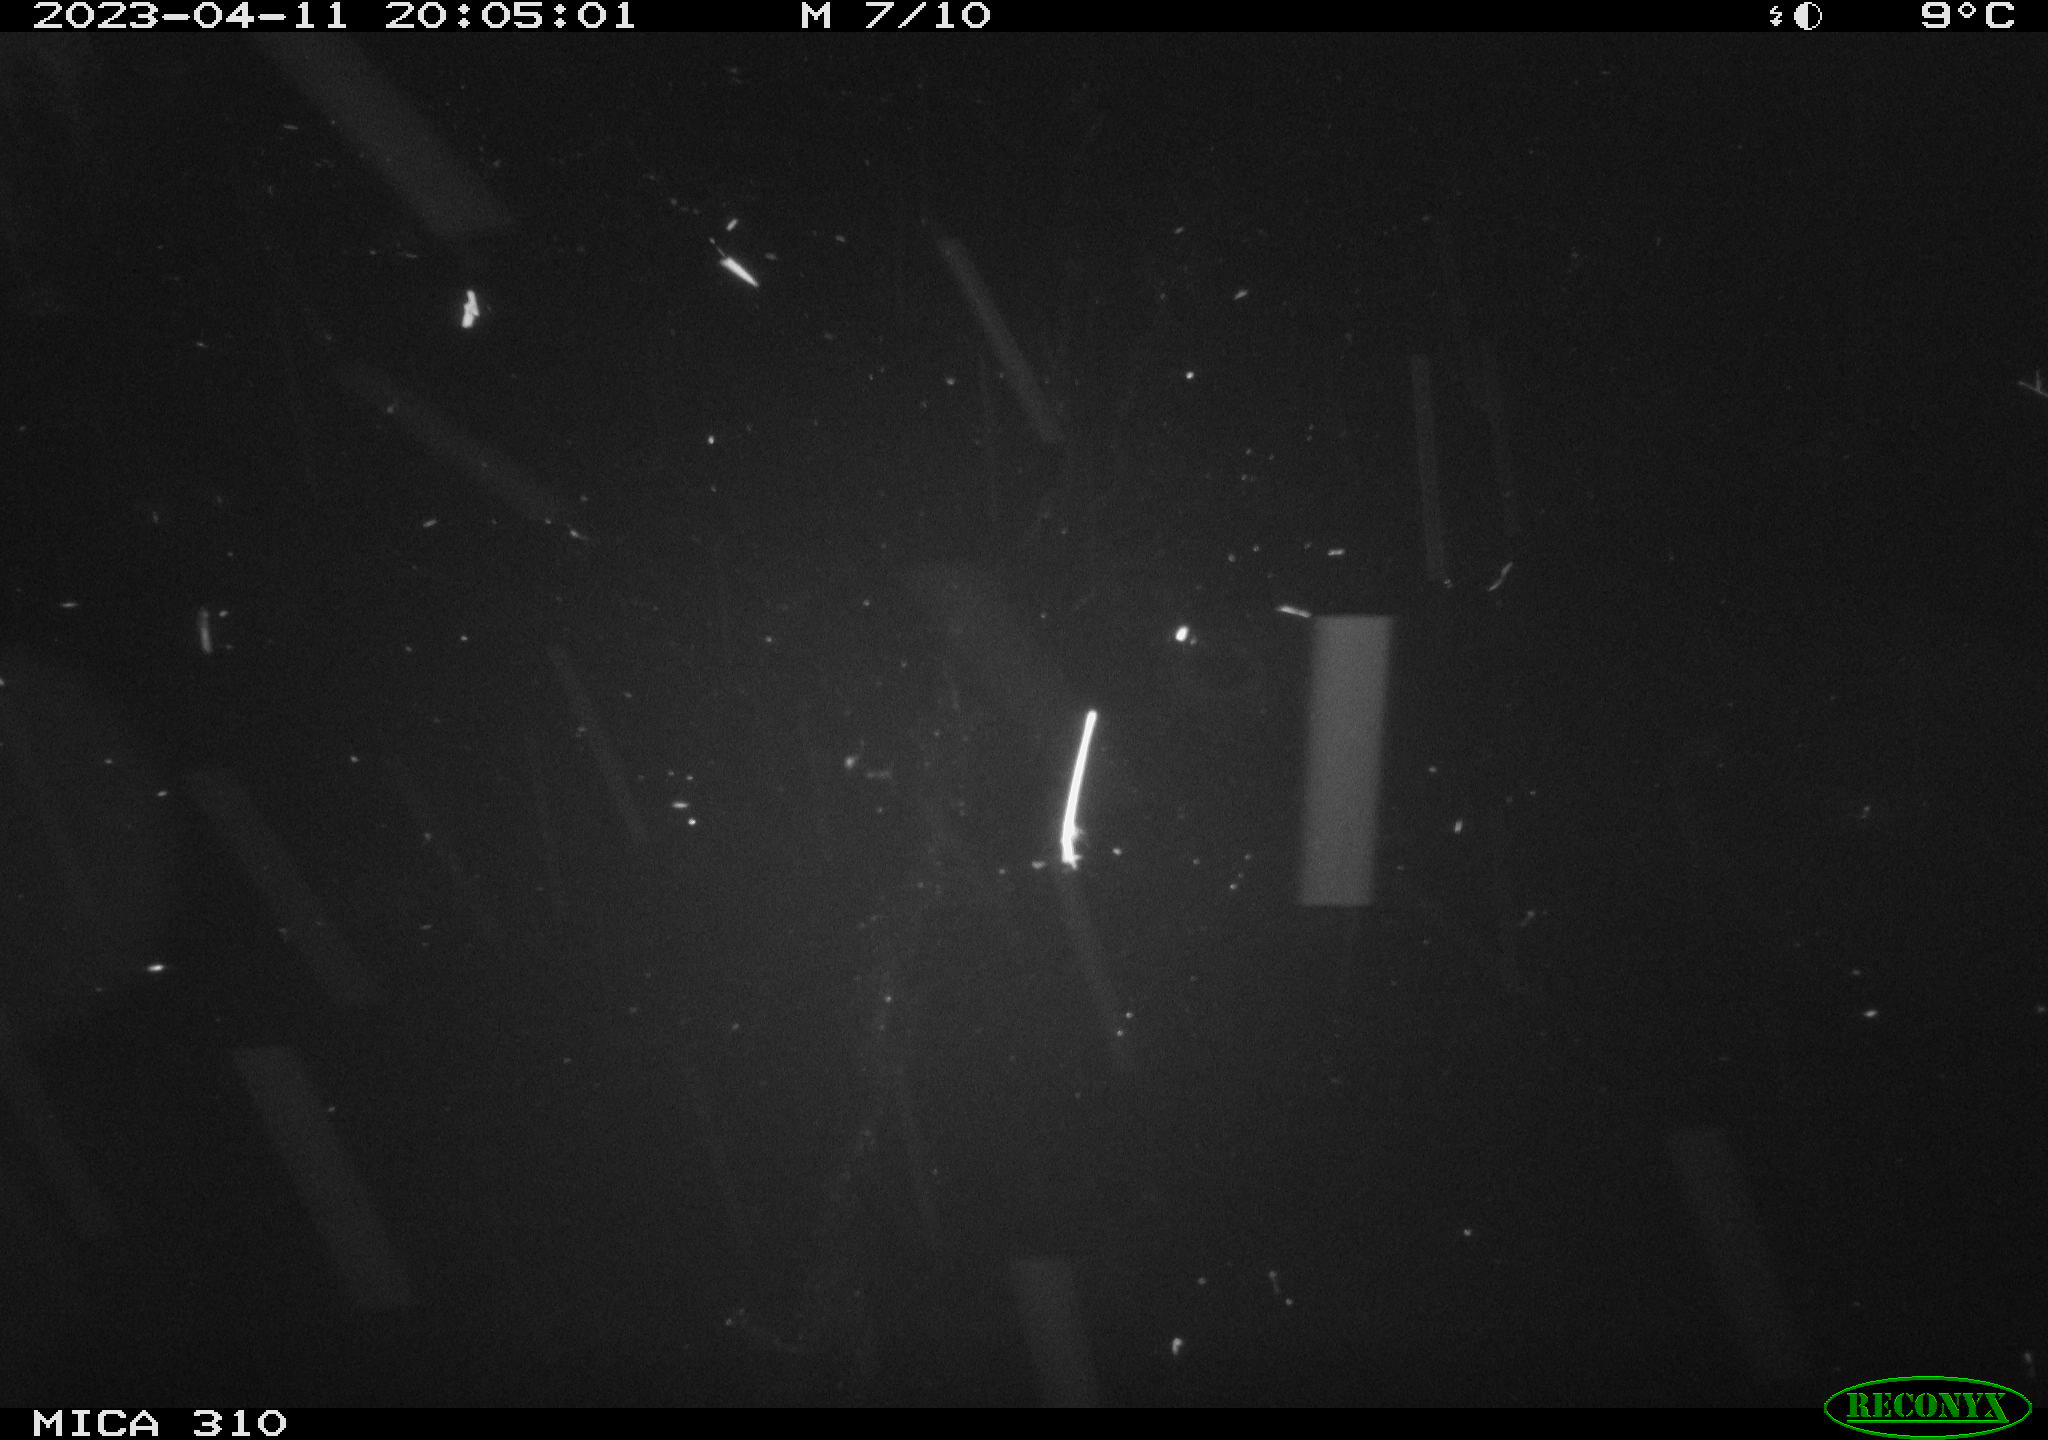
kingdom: Animalia
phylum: Chordata
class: Aves
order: Anseriformes
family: Anatidae
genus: Anas
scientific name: Anas
